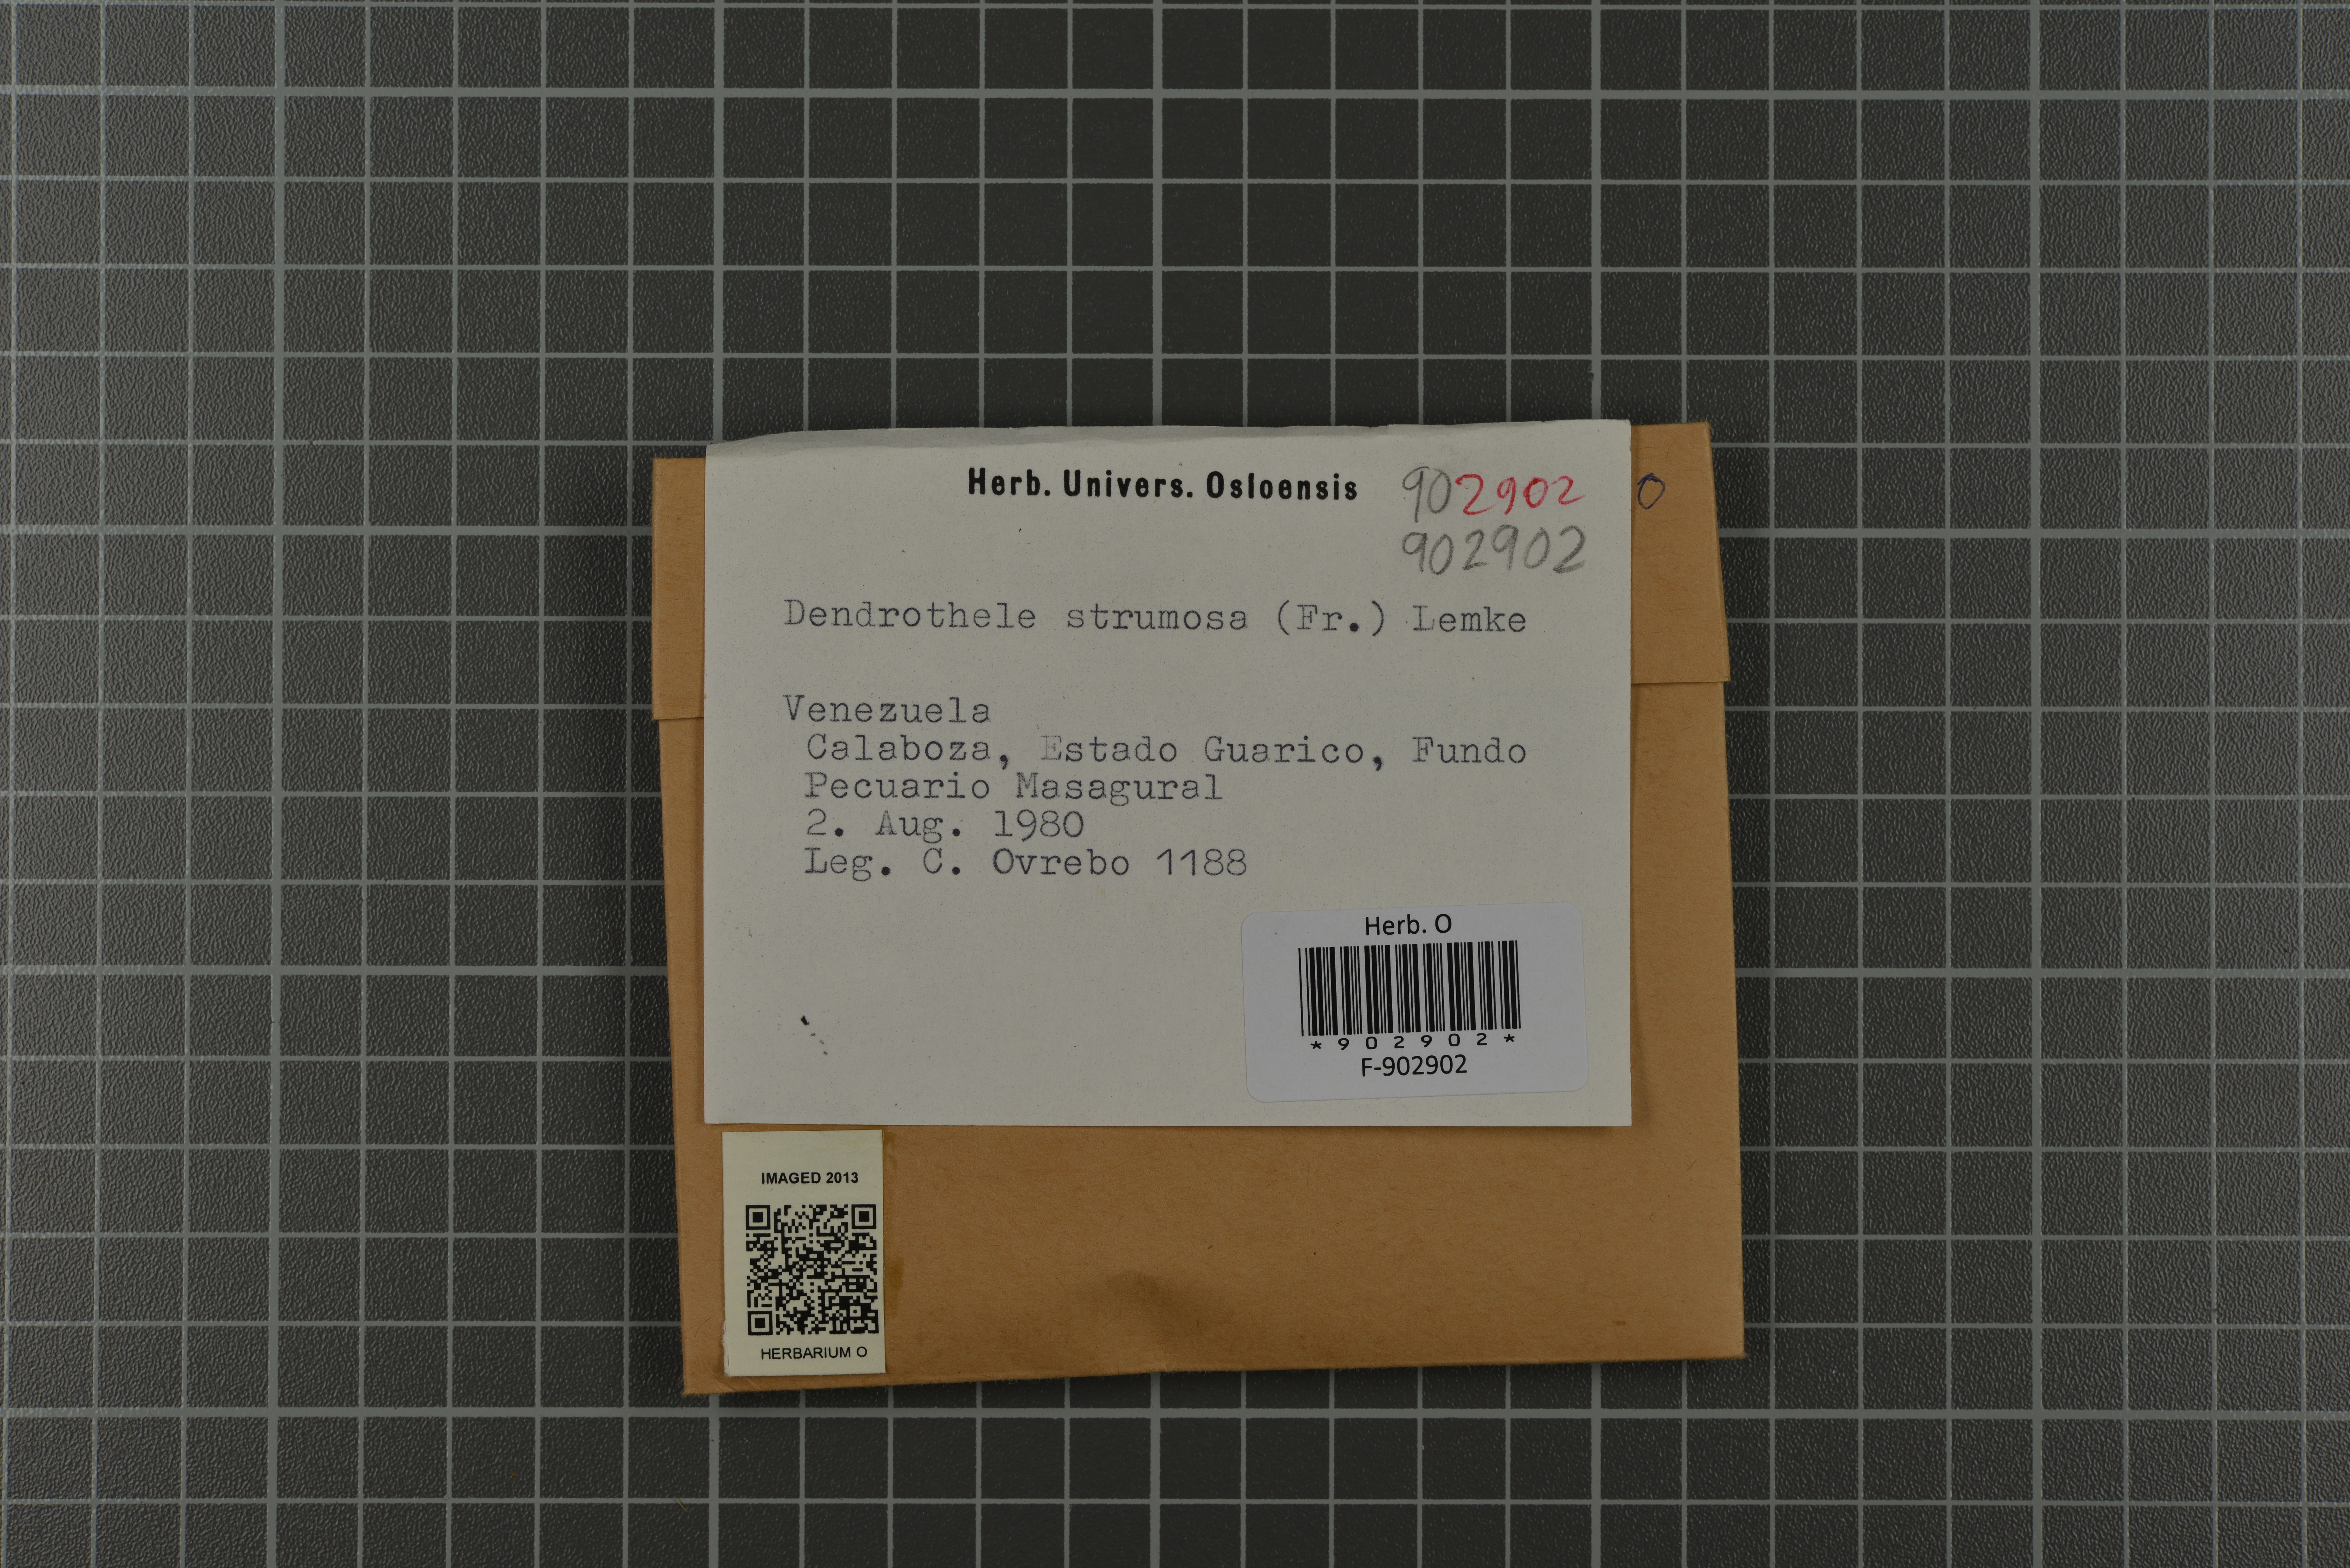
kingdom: Fungi
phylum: Basidiomycota
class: Agaricomycetes
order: Agaricales
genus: Dendrothele
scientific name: Dendrothele strumosa
